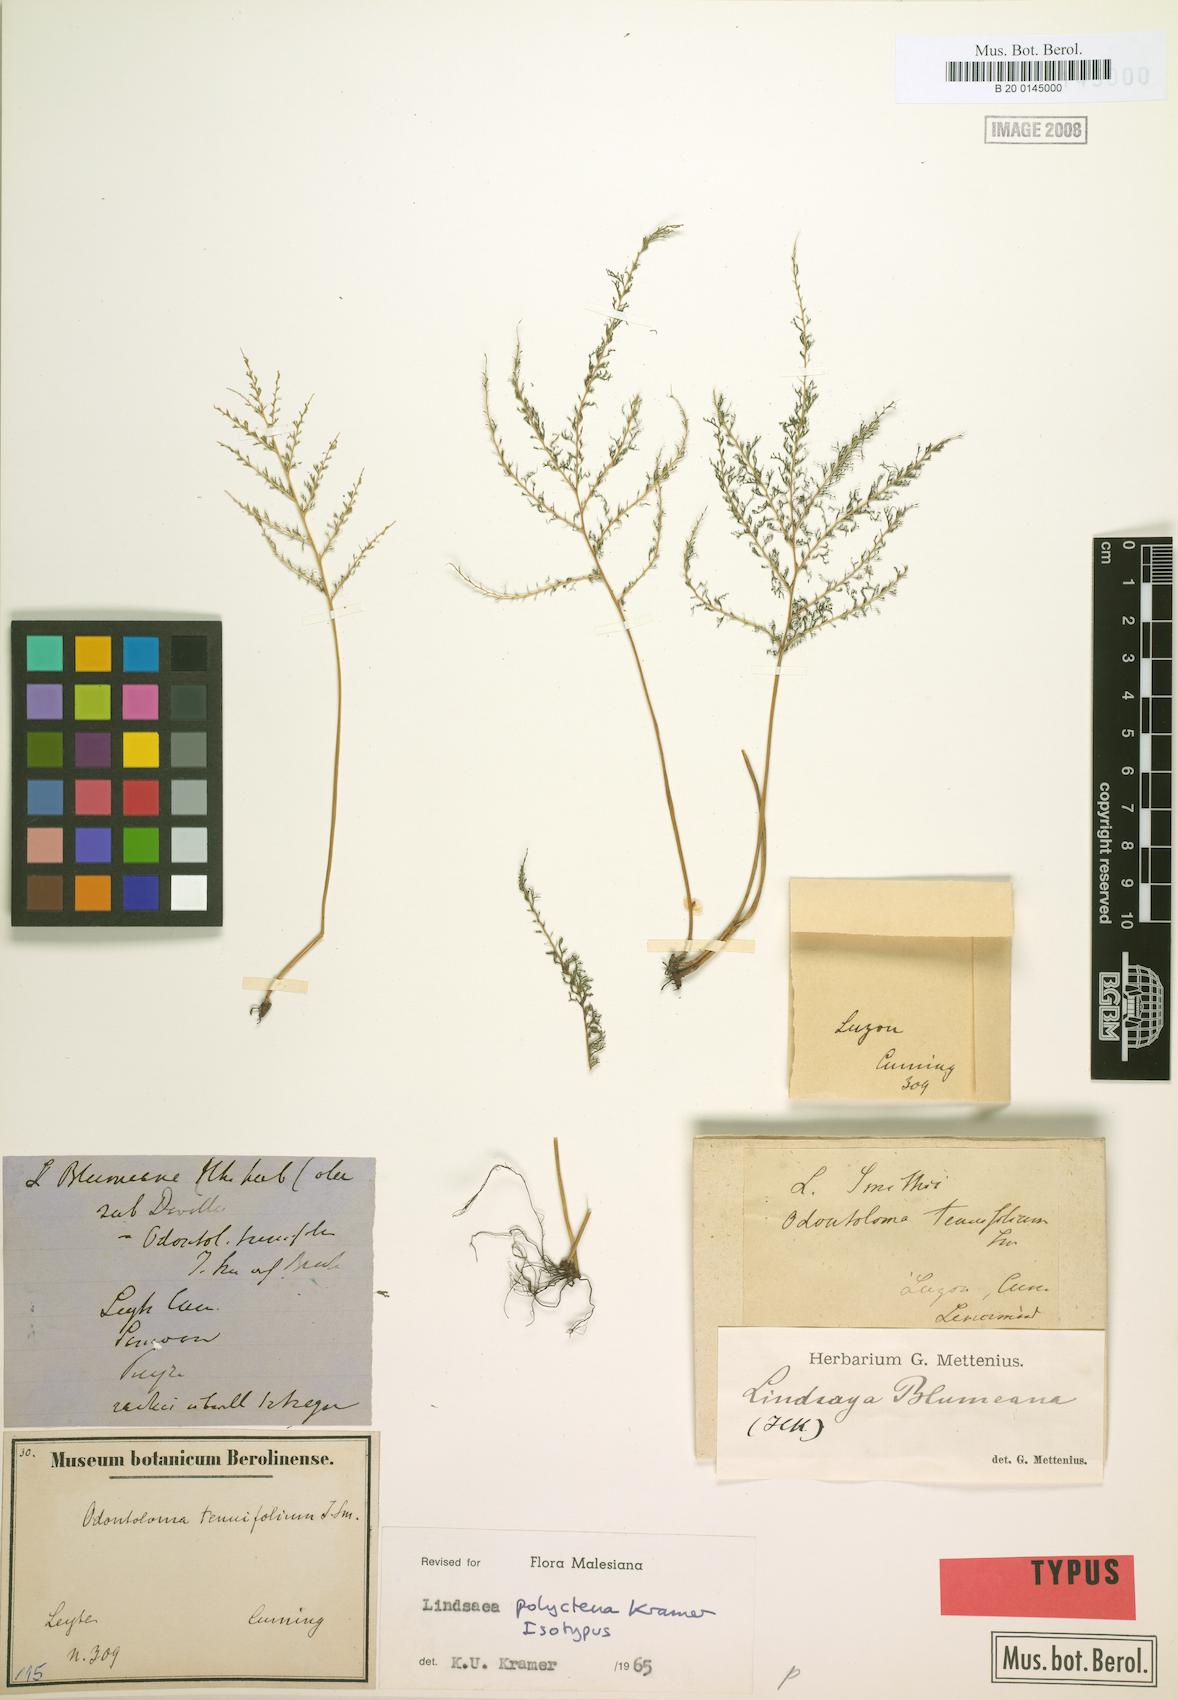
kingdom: Plantae
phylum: Tracheophyta
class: Polypodiopsida
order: Polypodiales
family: Lindsaeaceae
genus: Lindsaea
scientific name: Lindsaea tenuifolia
